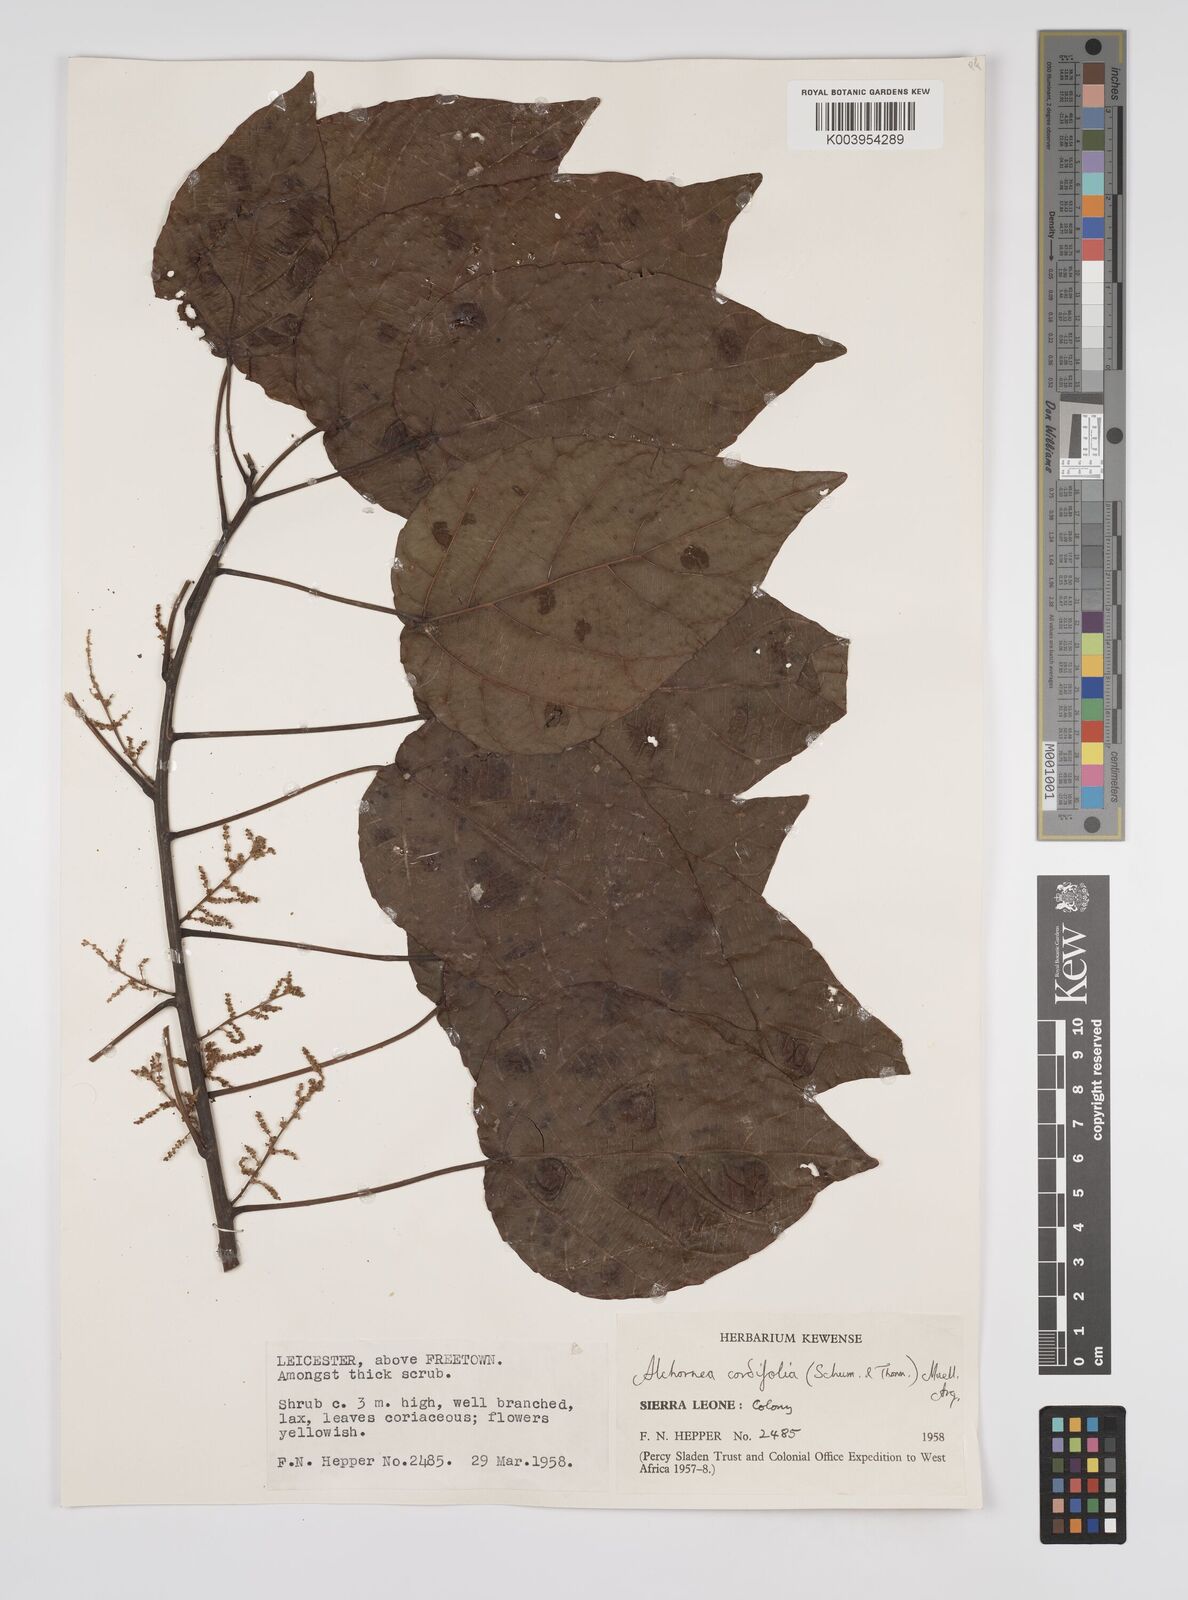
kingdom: Plantae
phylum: Tracheophyta
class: Magnoliopsida
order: Malpighiales
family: Euphorbiaceae
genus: Alchornea
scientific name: Alchornea cordifolia
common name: Christmasbush
